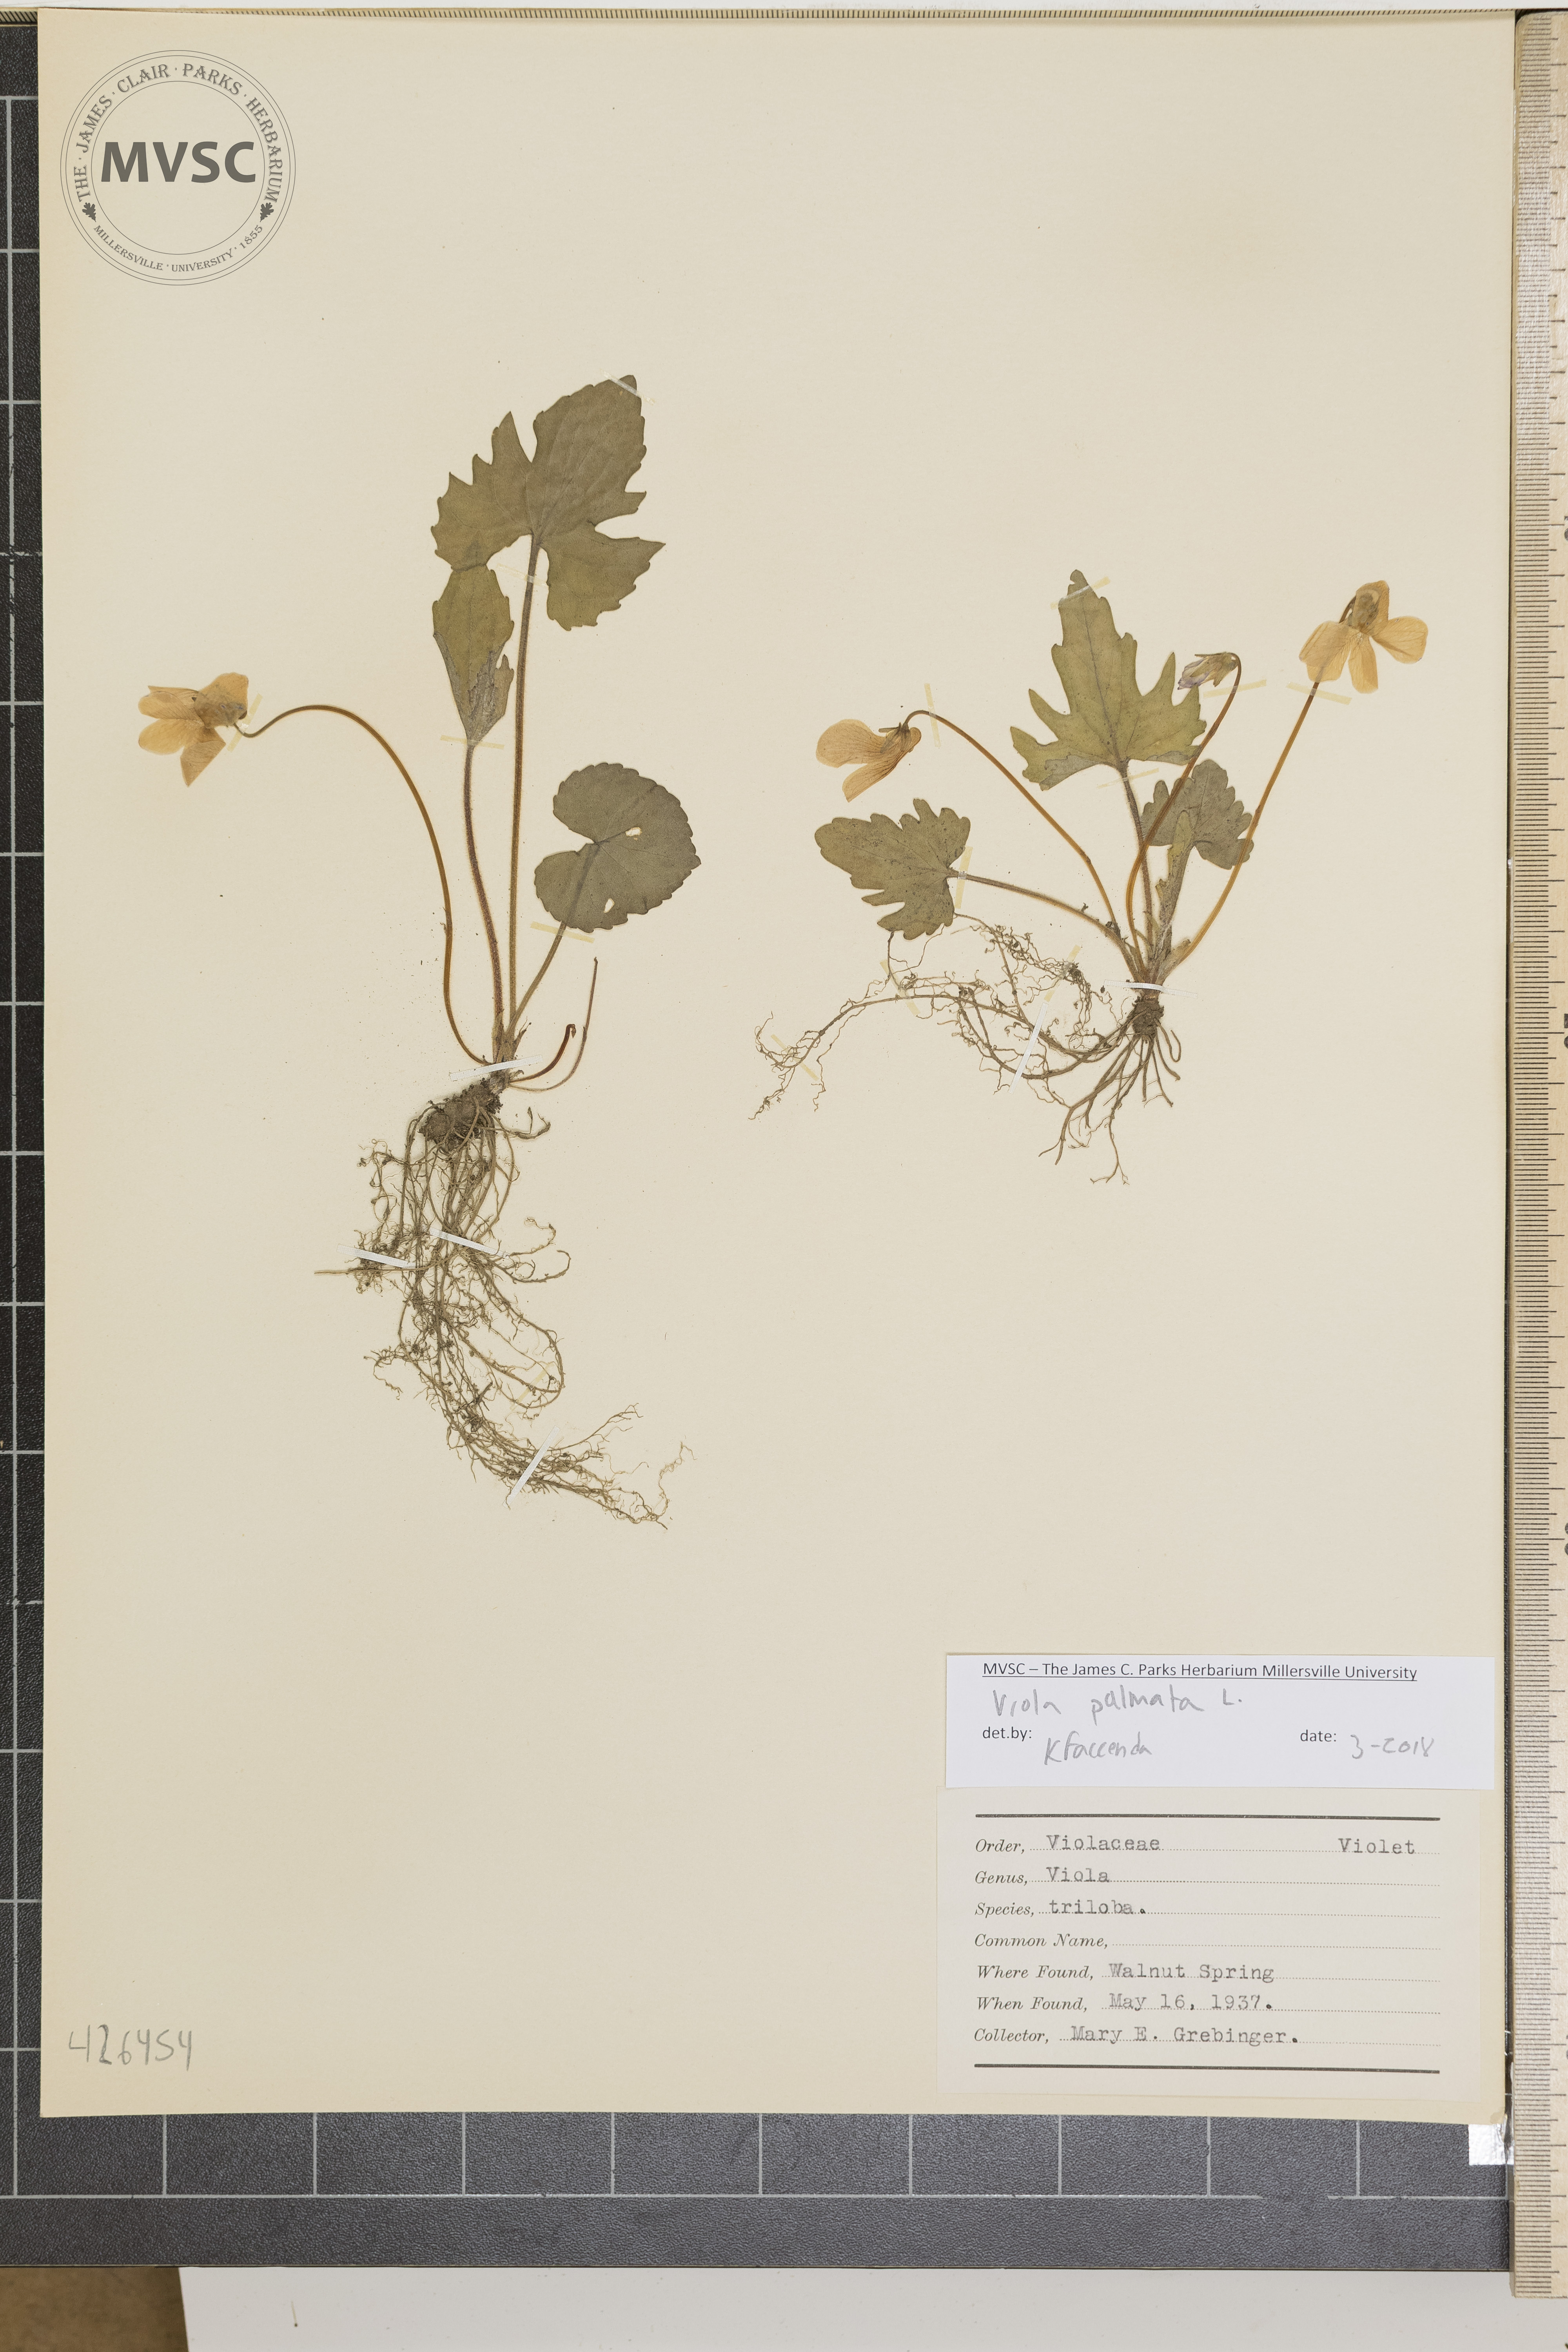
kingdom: Plantae
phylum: Tracheophyta
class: Magnoliopsida
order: Malpighiales
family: Violaceae
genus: Viola
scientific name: Viola palmata
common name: Early blue violet
